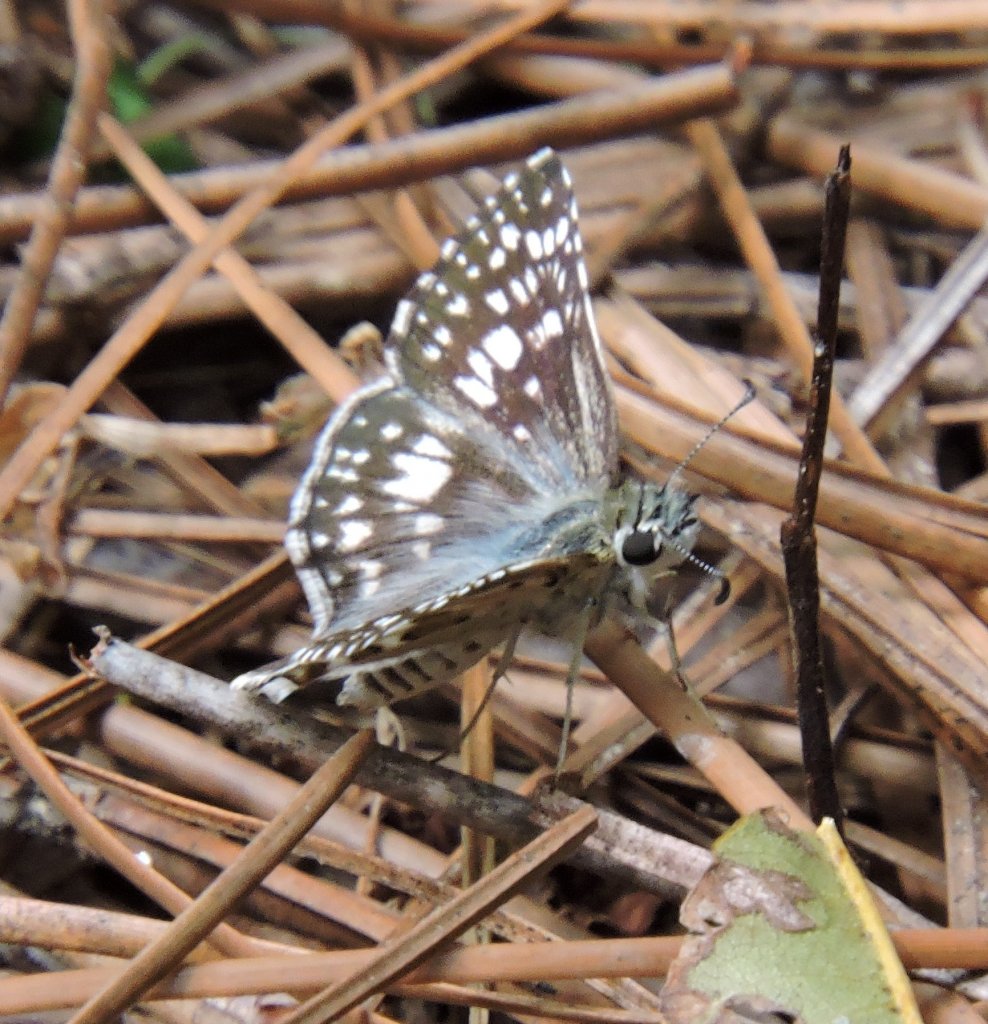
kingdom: Animalia
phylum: Arthropoda
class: Insecta
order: Lepidoptera
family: Hesperiidae
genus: Pyrgus
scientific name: Pyrgus
